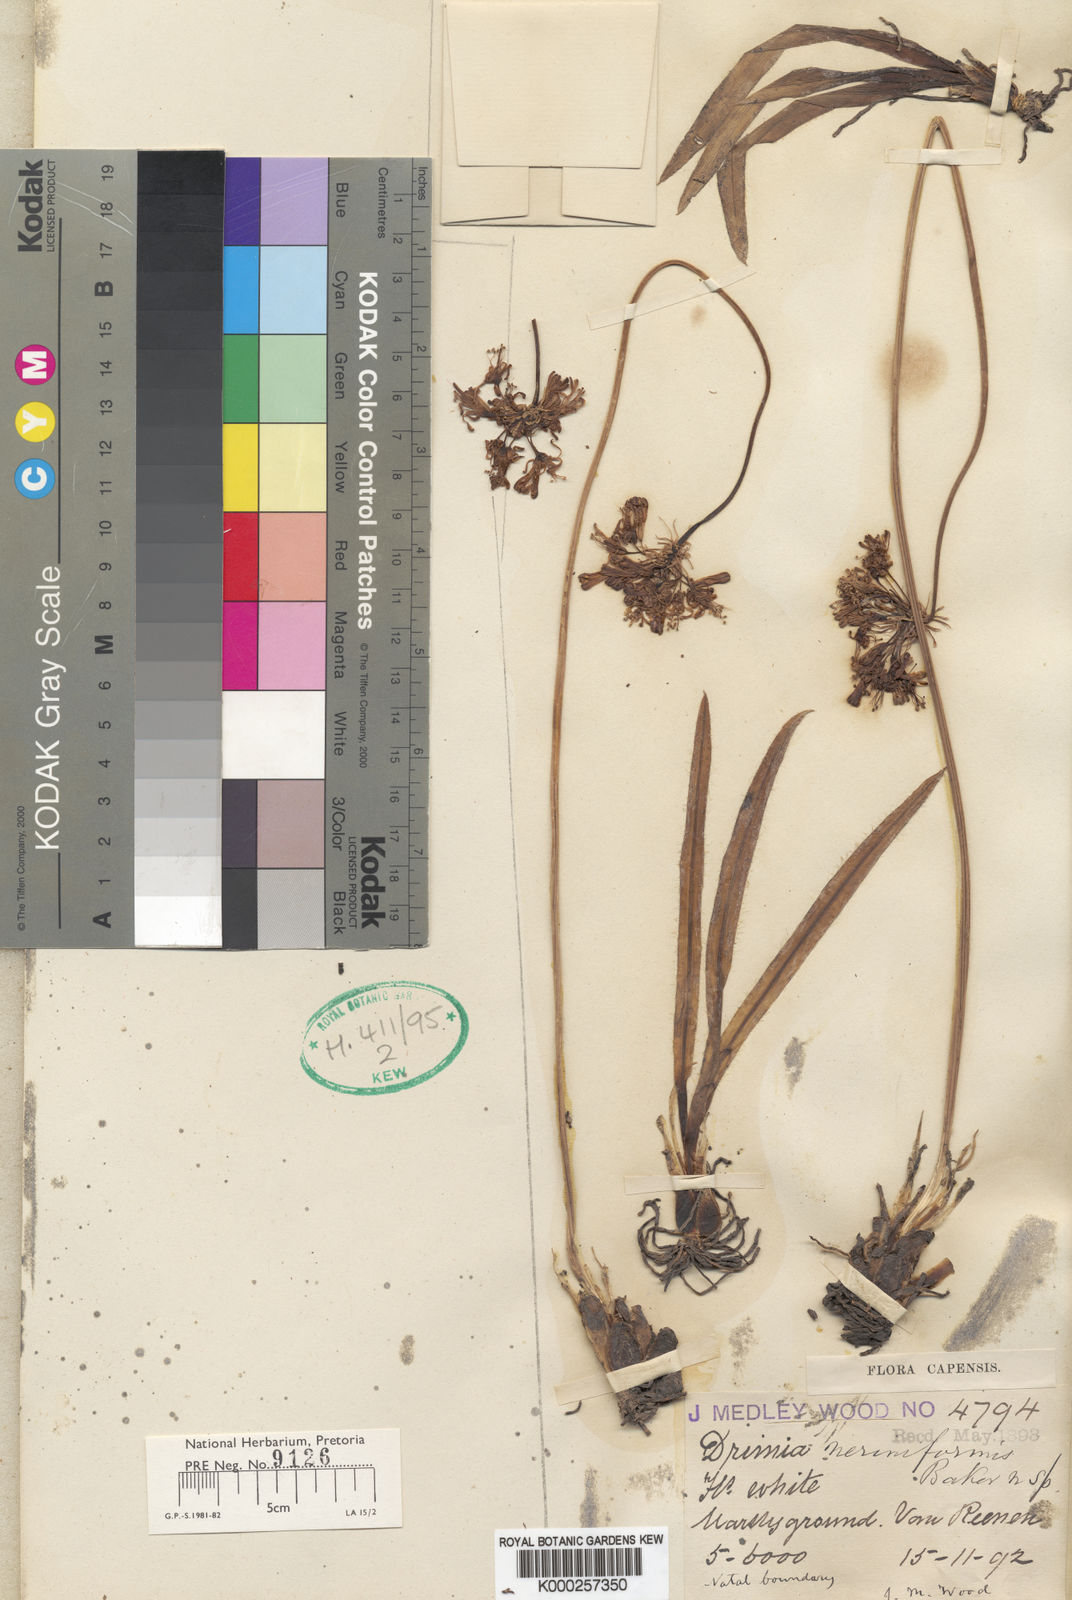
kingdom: Plantae
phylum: Tracheophyta
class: Liliopsida
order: Asparagales
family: Asparagaceae
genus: Drimia
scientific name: Drimia sphaerocephala
